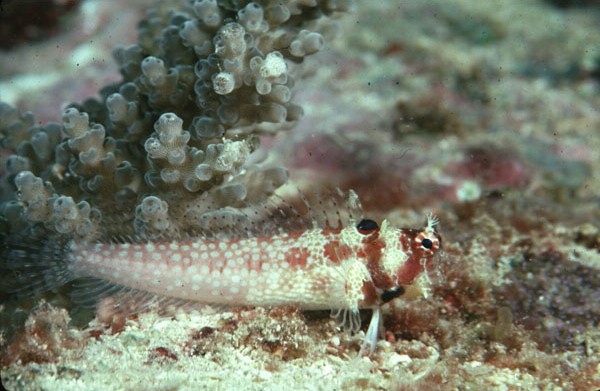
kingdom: Animalia
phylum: Chordata
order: Perciformes
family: Blenniidae
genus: Crossosalarias
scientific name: Crossosalarias macrospilus
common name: Triplespot blenny
